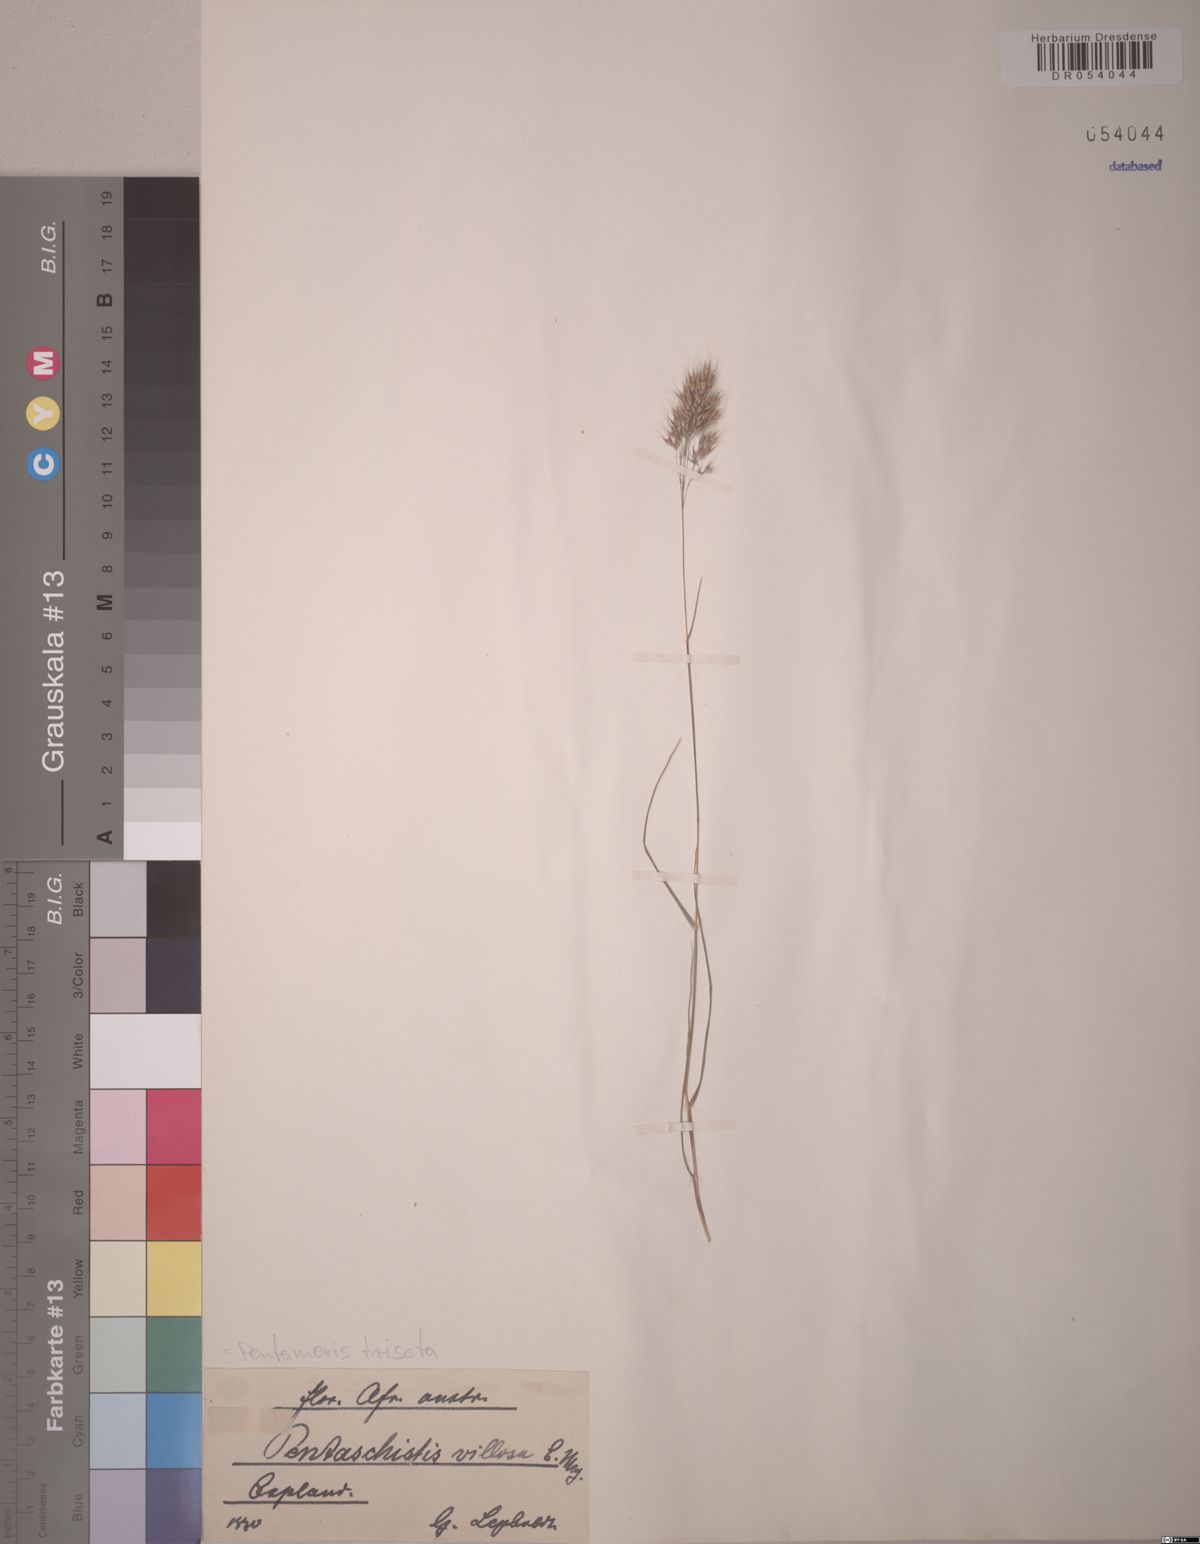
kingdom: Plantae
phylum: Tracheophyta
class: Liliopsida
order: Poales
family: Poaceae
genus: Pentameris
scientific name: Pentameris triseta
